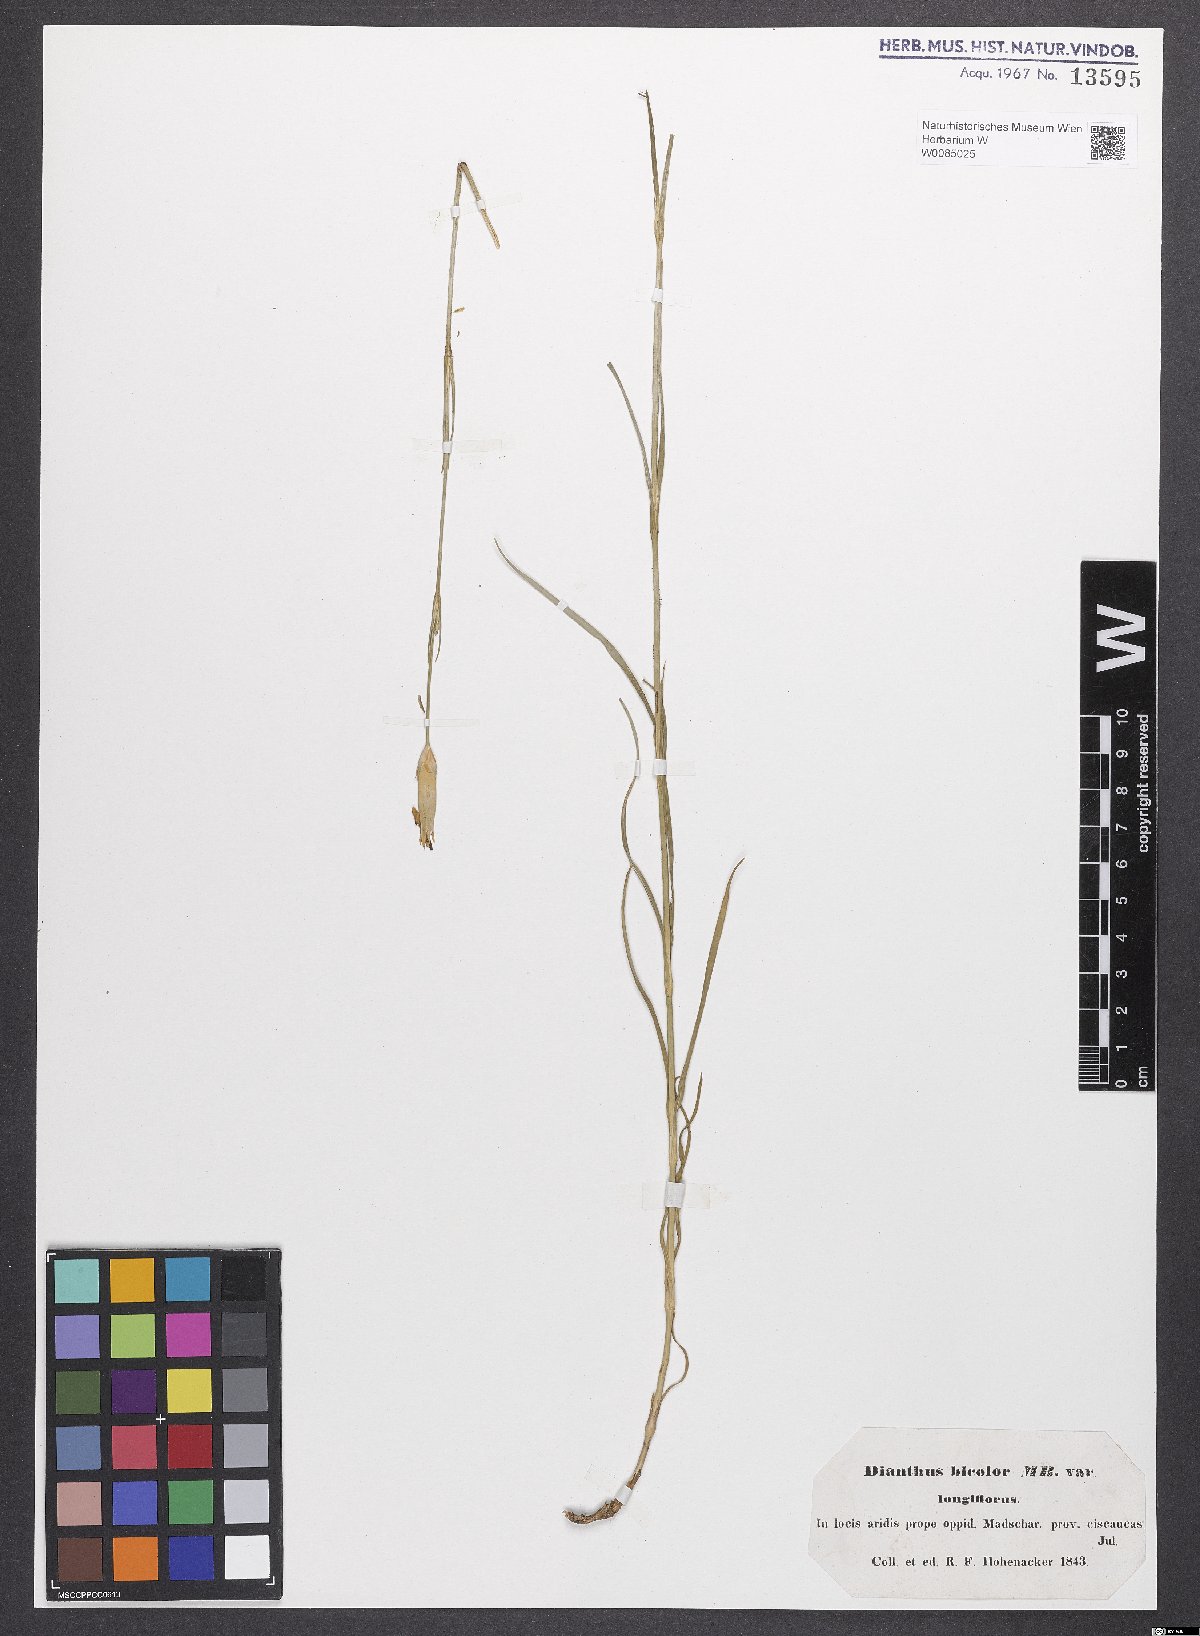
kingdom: Plantae
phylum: Tracheophyta
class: Magnoliopsida
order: Caryophyllales
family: Caryophyllaceae
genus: Dianthus
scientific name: Dianthus marschallii
